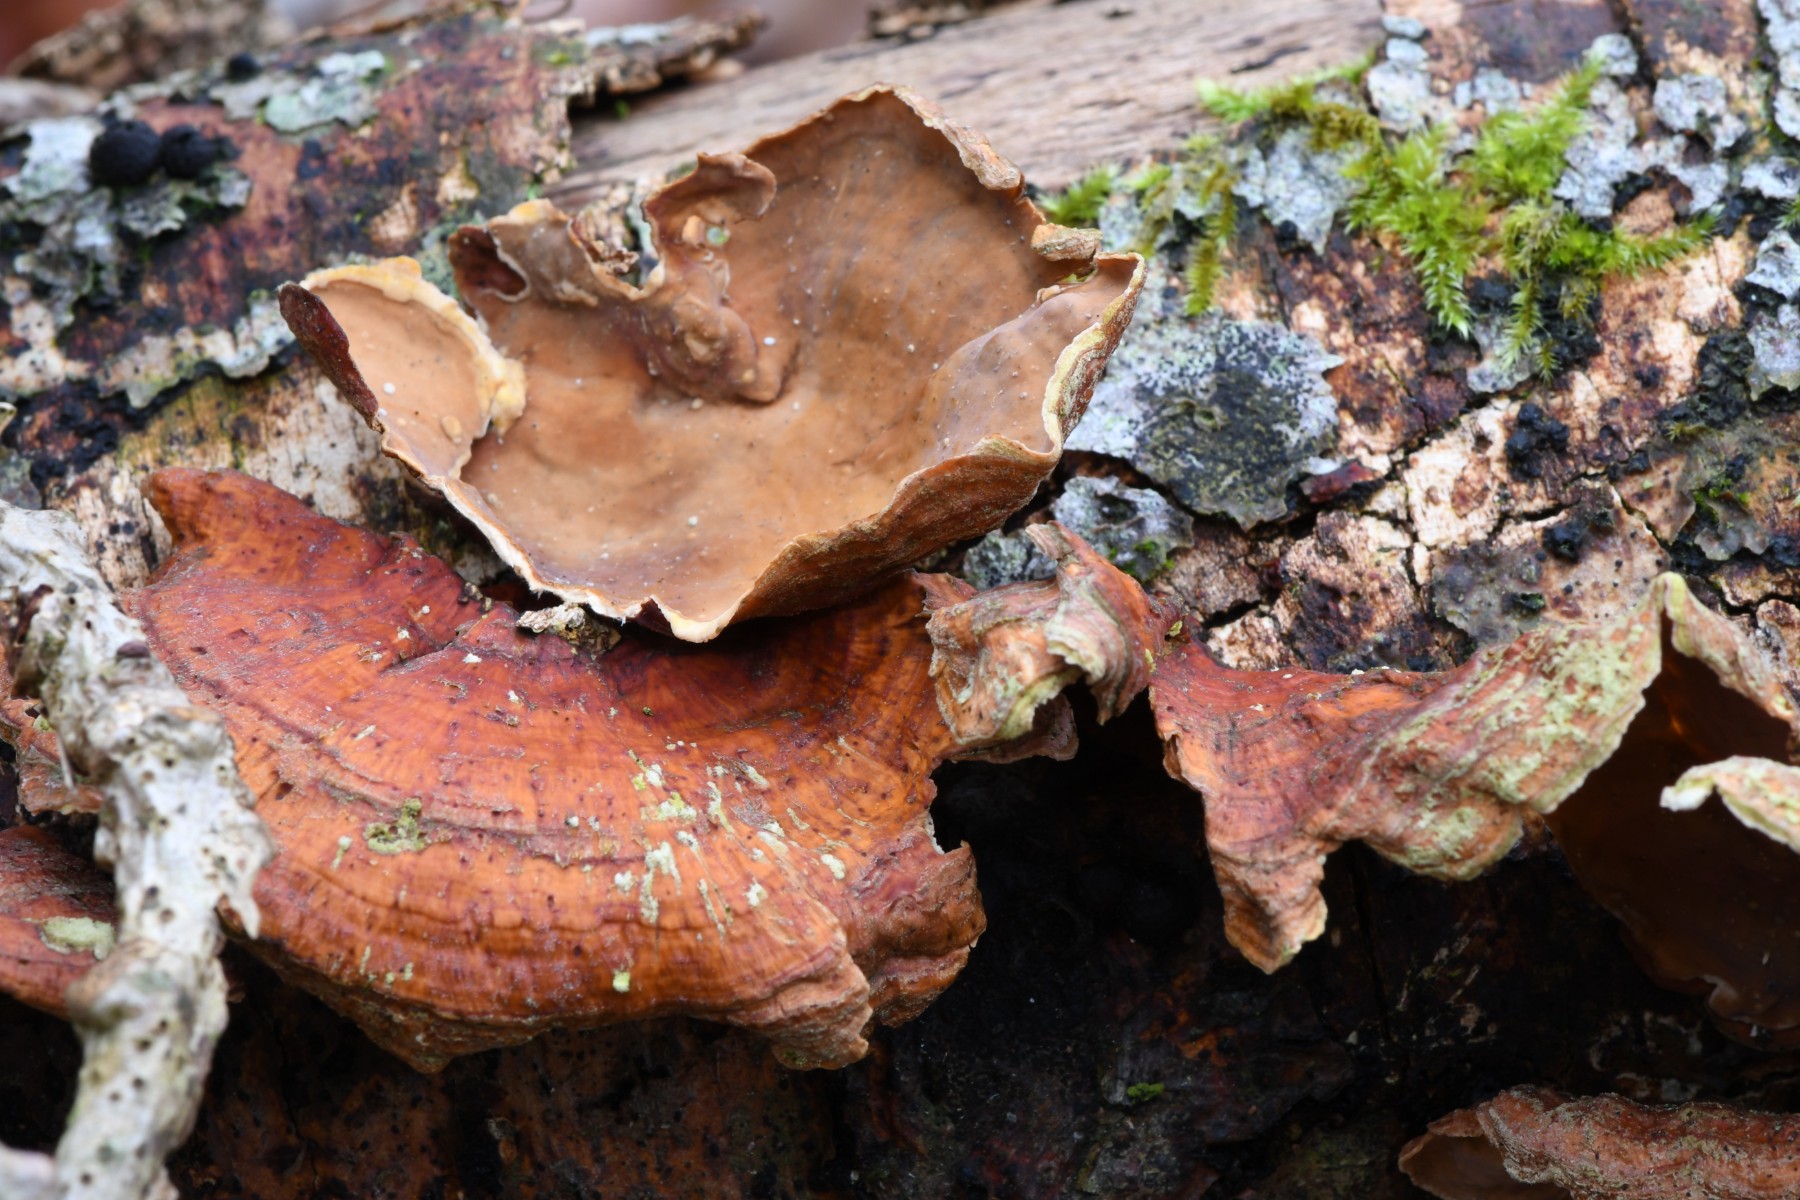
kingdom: Fungi
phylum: Basidiomycota
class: Agaricomycetes
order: Russulales
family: Stereaceae
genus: Stereum
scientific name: Stereum subtomentosum
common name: smuk lædersvamp
